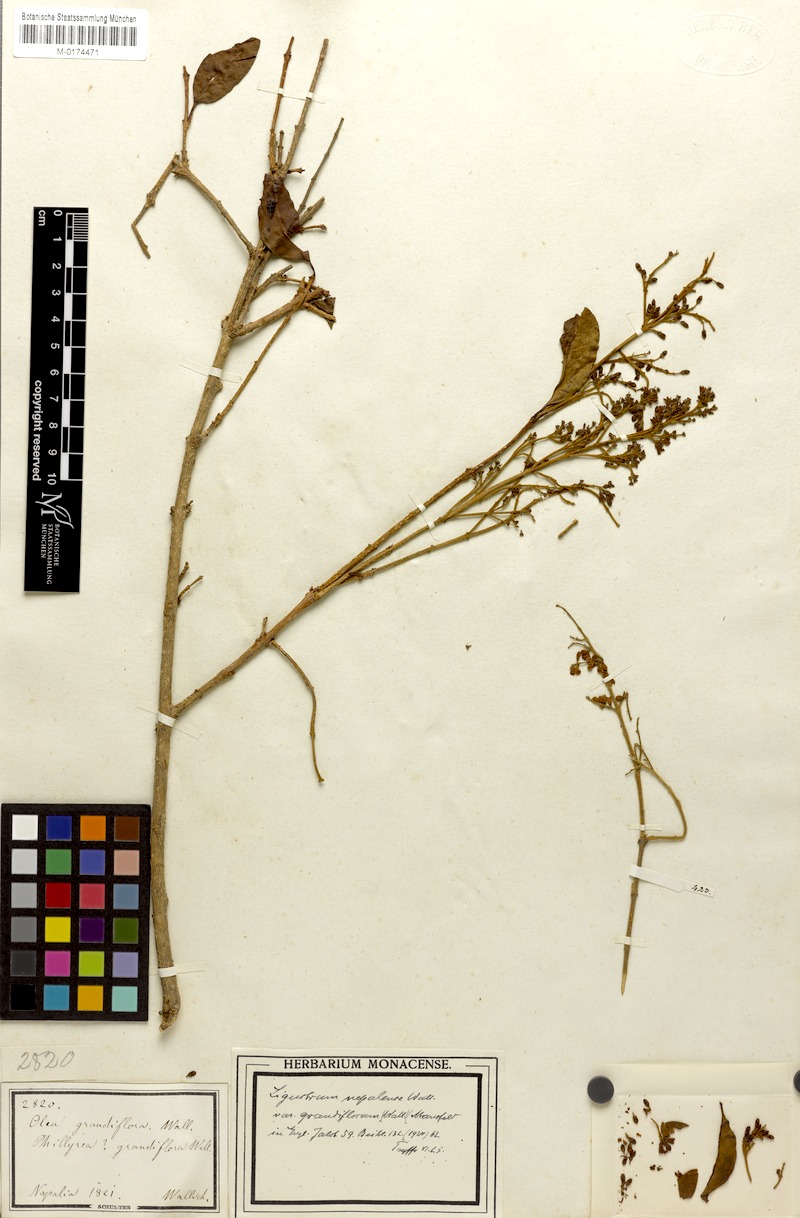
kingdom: Plantae
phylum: Tracheophyta
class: Magnoliopsida
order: Lamiales
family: Oleaceae
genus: Ligustrum
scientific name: Ligustrum nepalense
